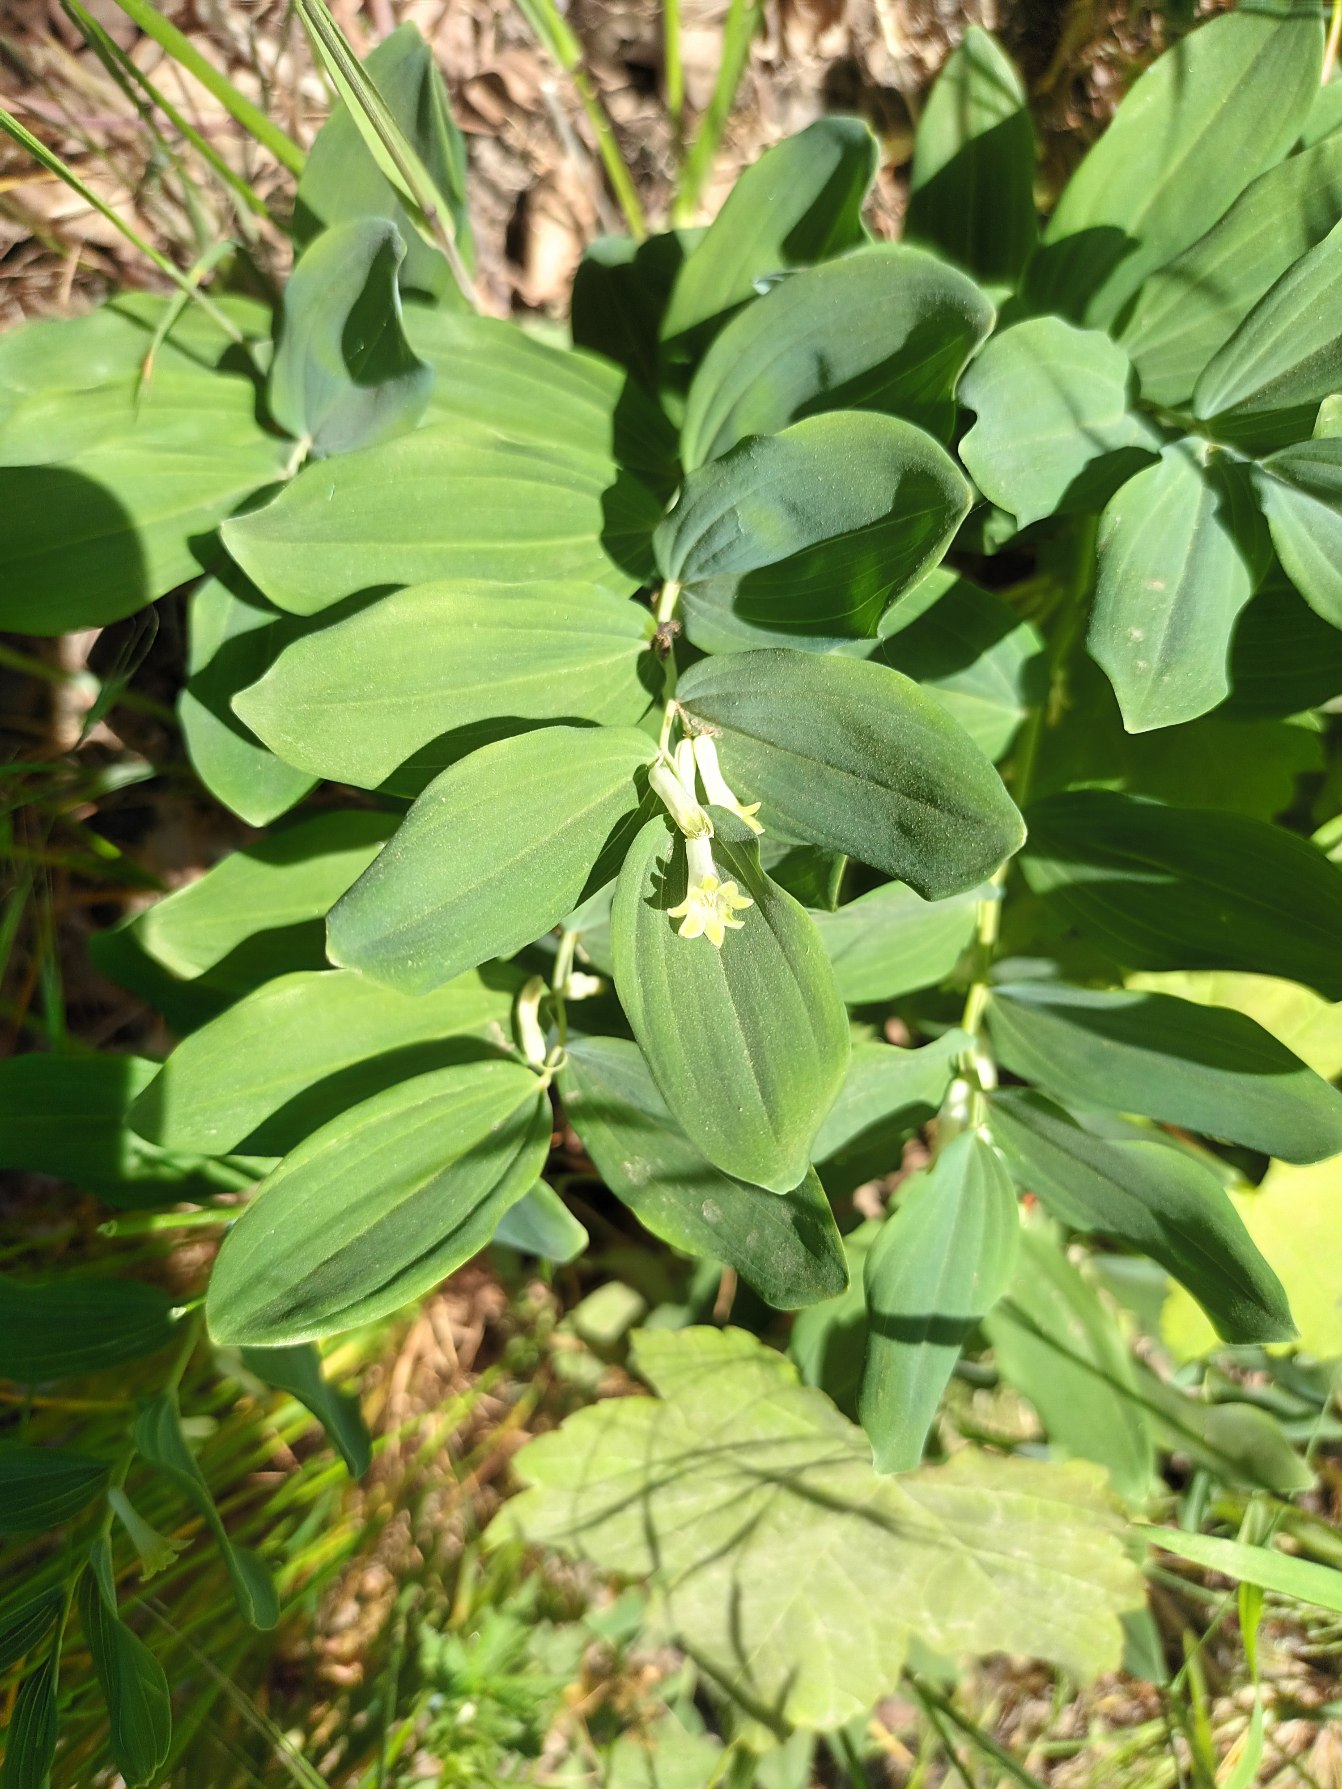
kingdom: Plantae
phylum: Tracheophyta
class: Liliopsida
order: Asparagales
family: Asparagaceae
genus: Polygonatum
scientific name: Polygonatum multiflorum
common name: Stor konval
